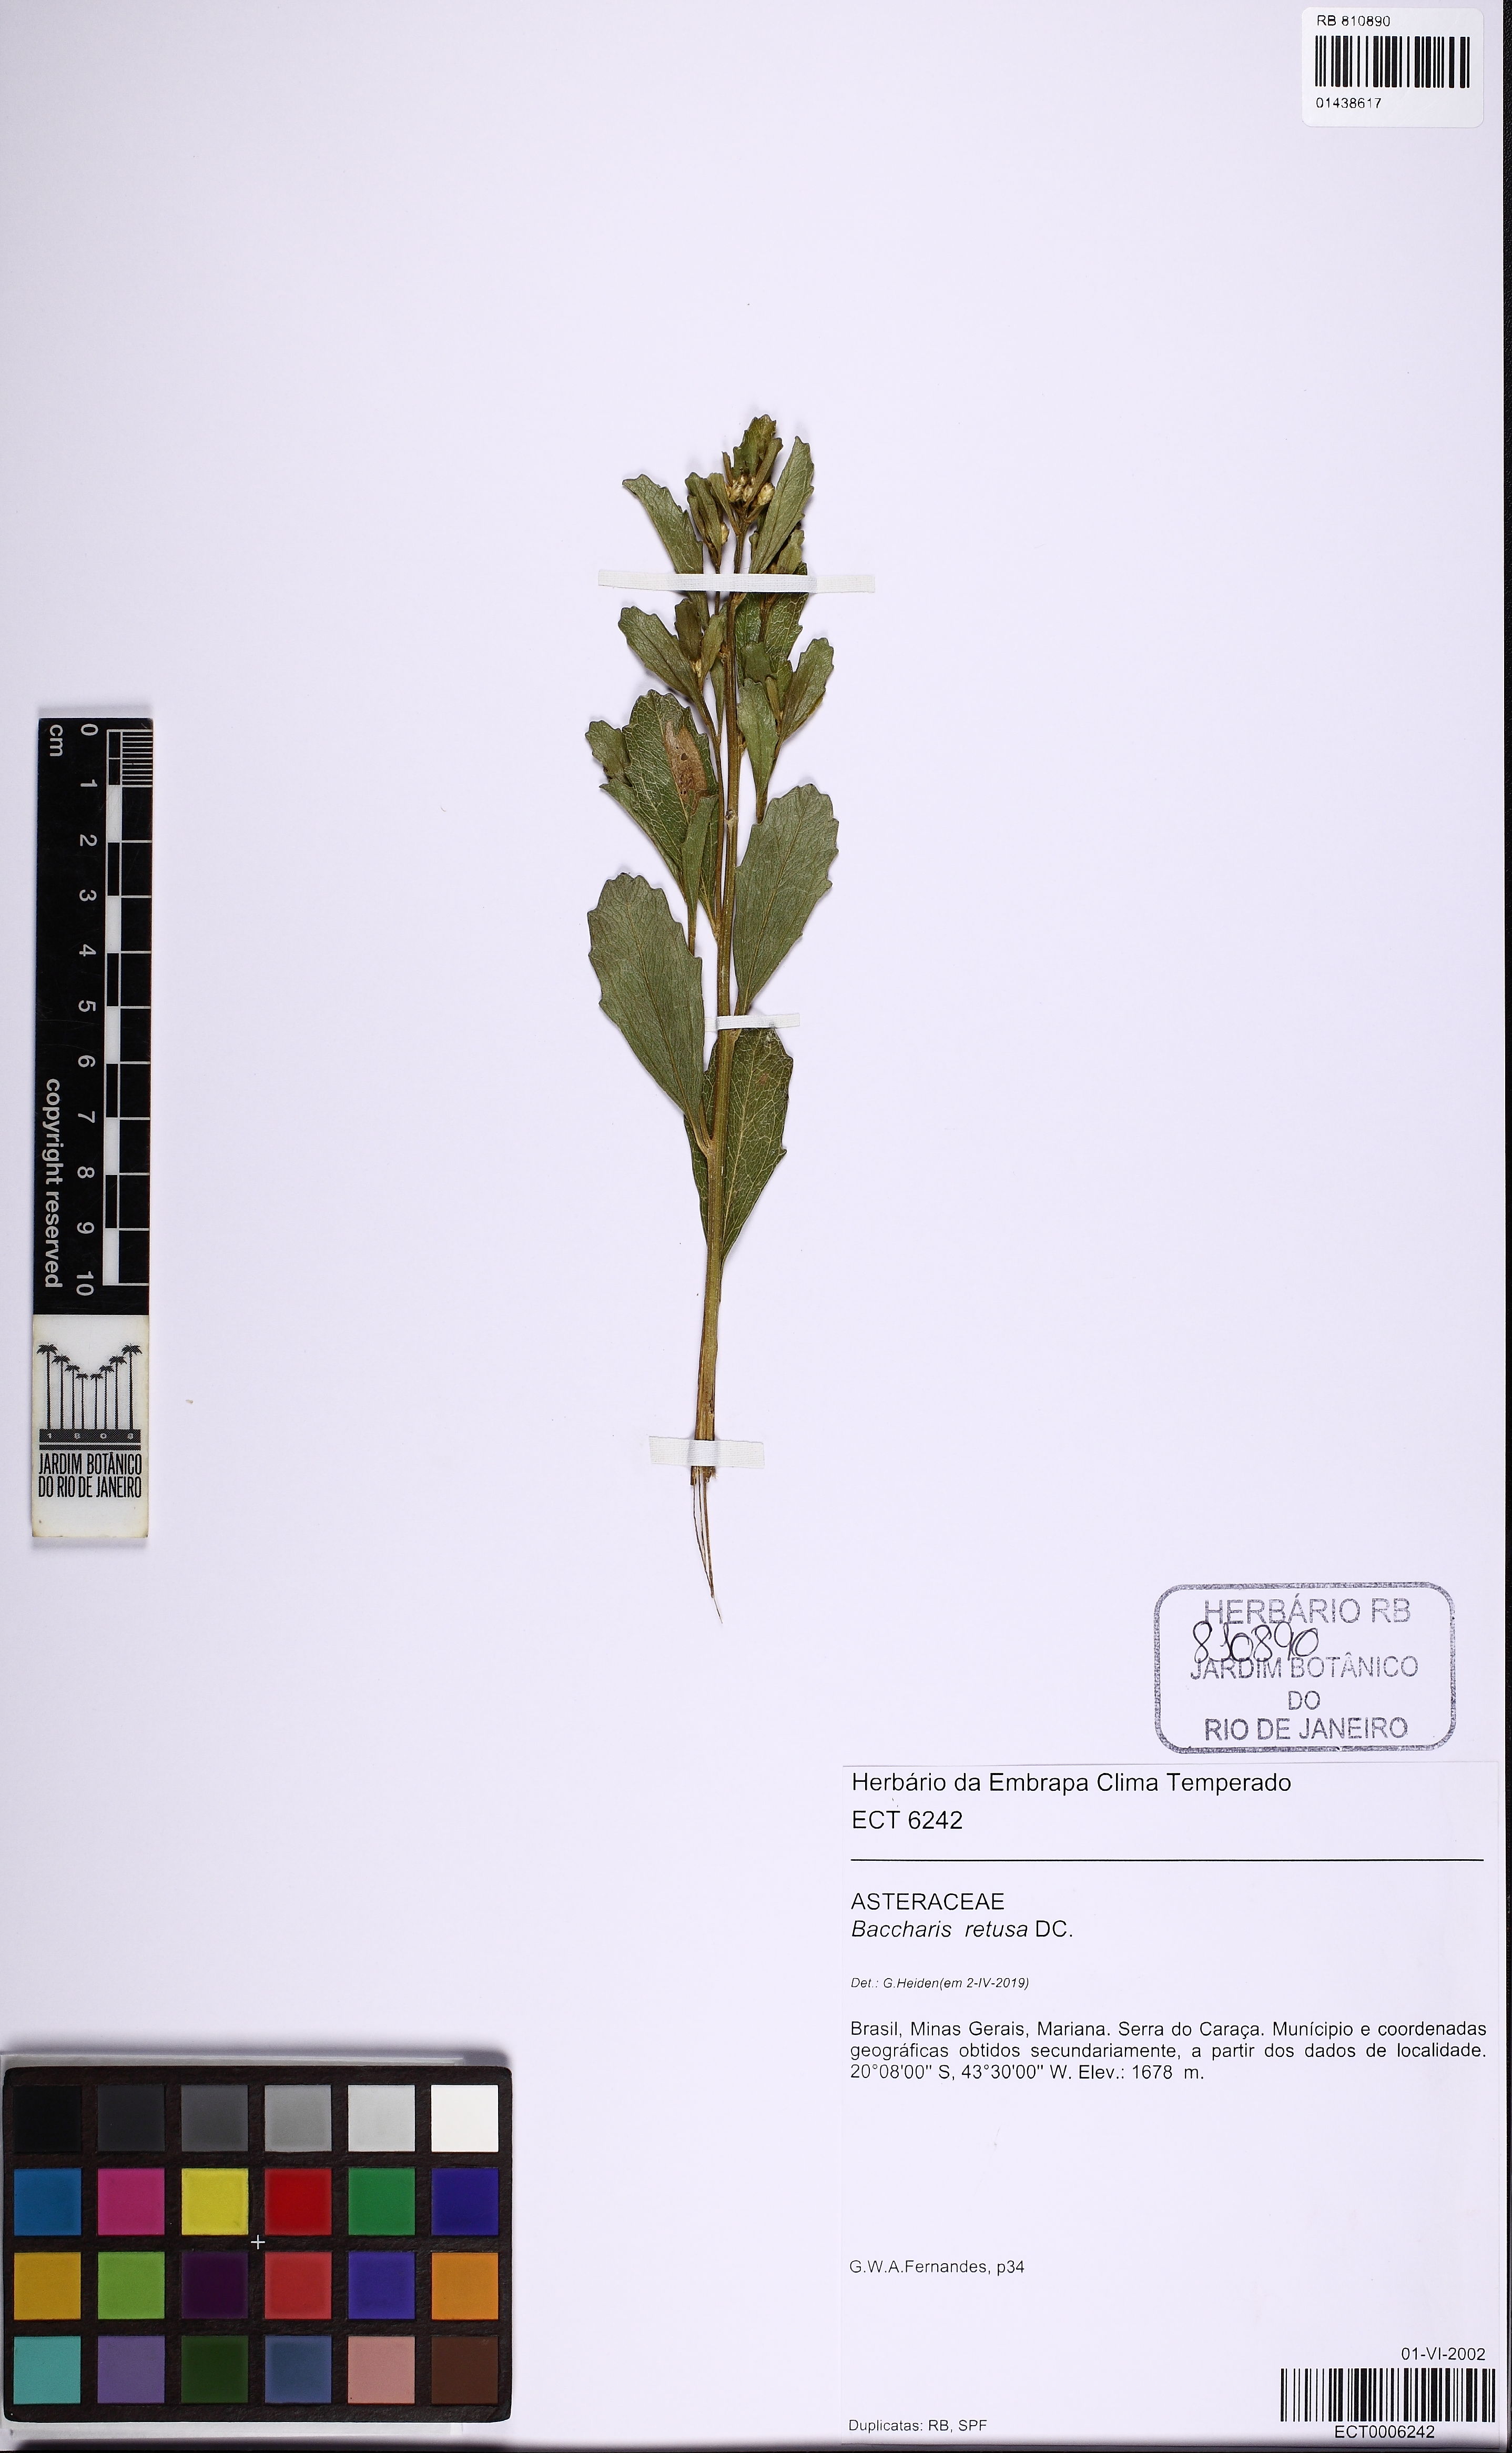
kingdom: Plantae
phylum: Tracheophyta
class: Magnoliopsida
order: Asterales
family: Asteraceae
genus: Baccharis
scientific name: Baccharis retusa
